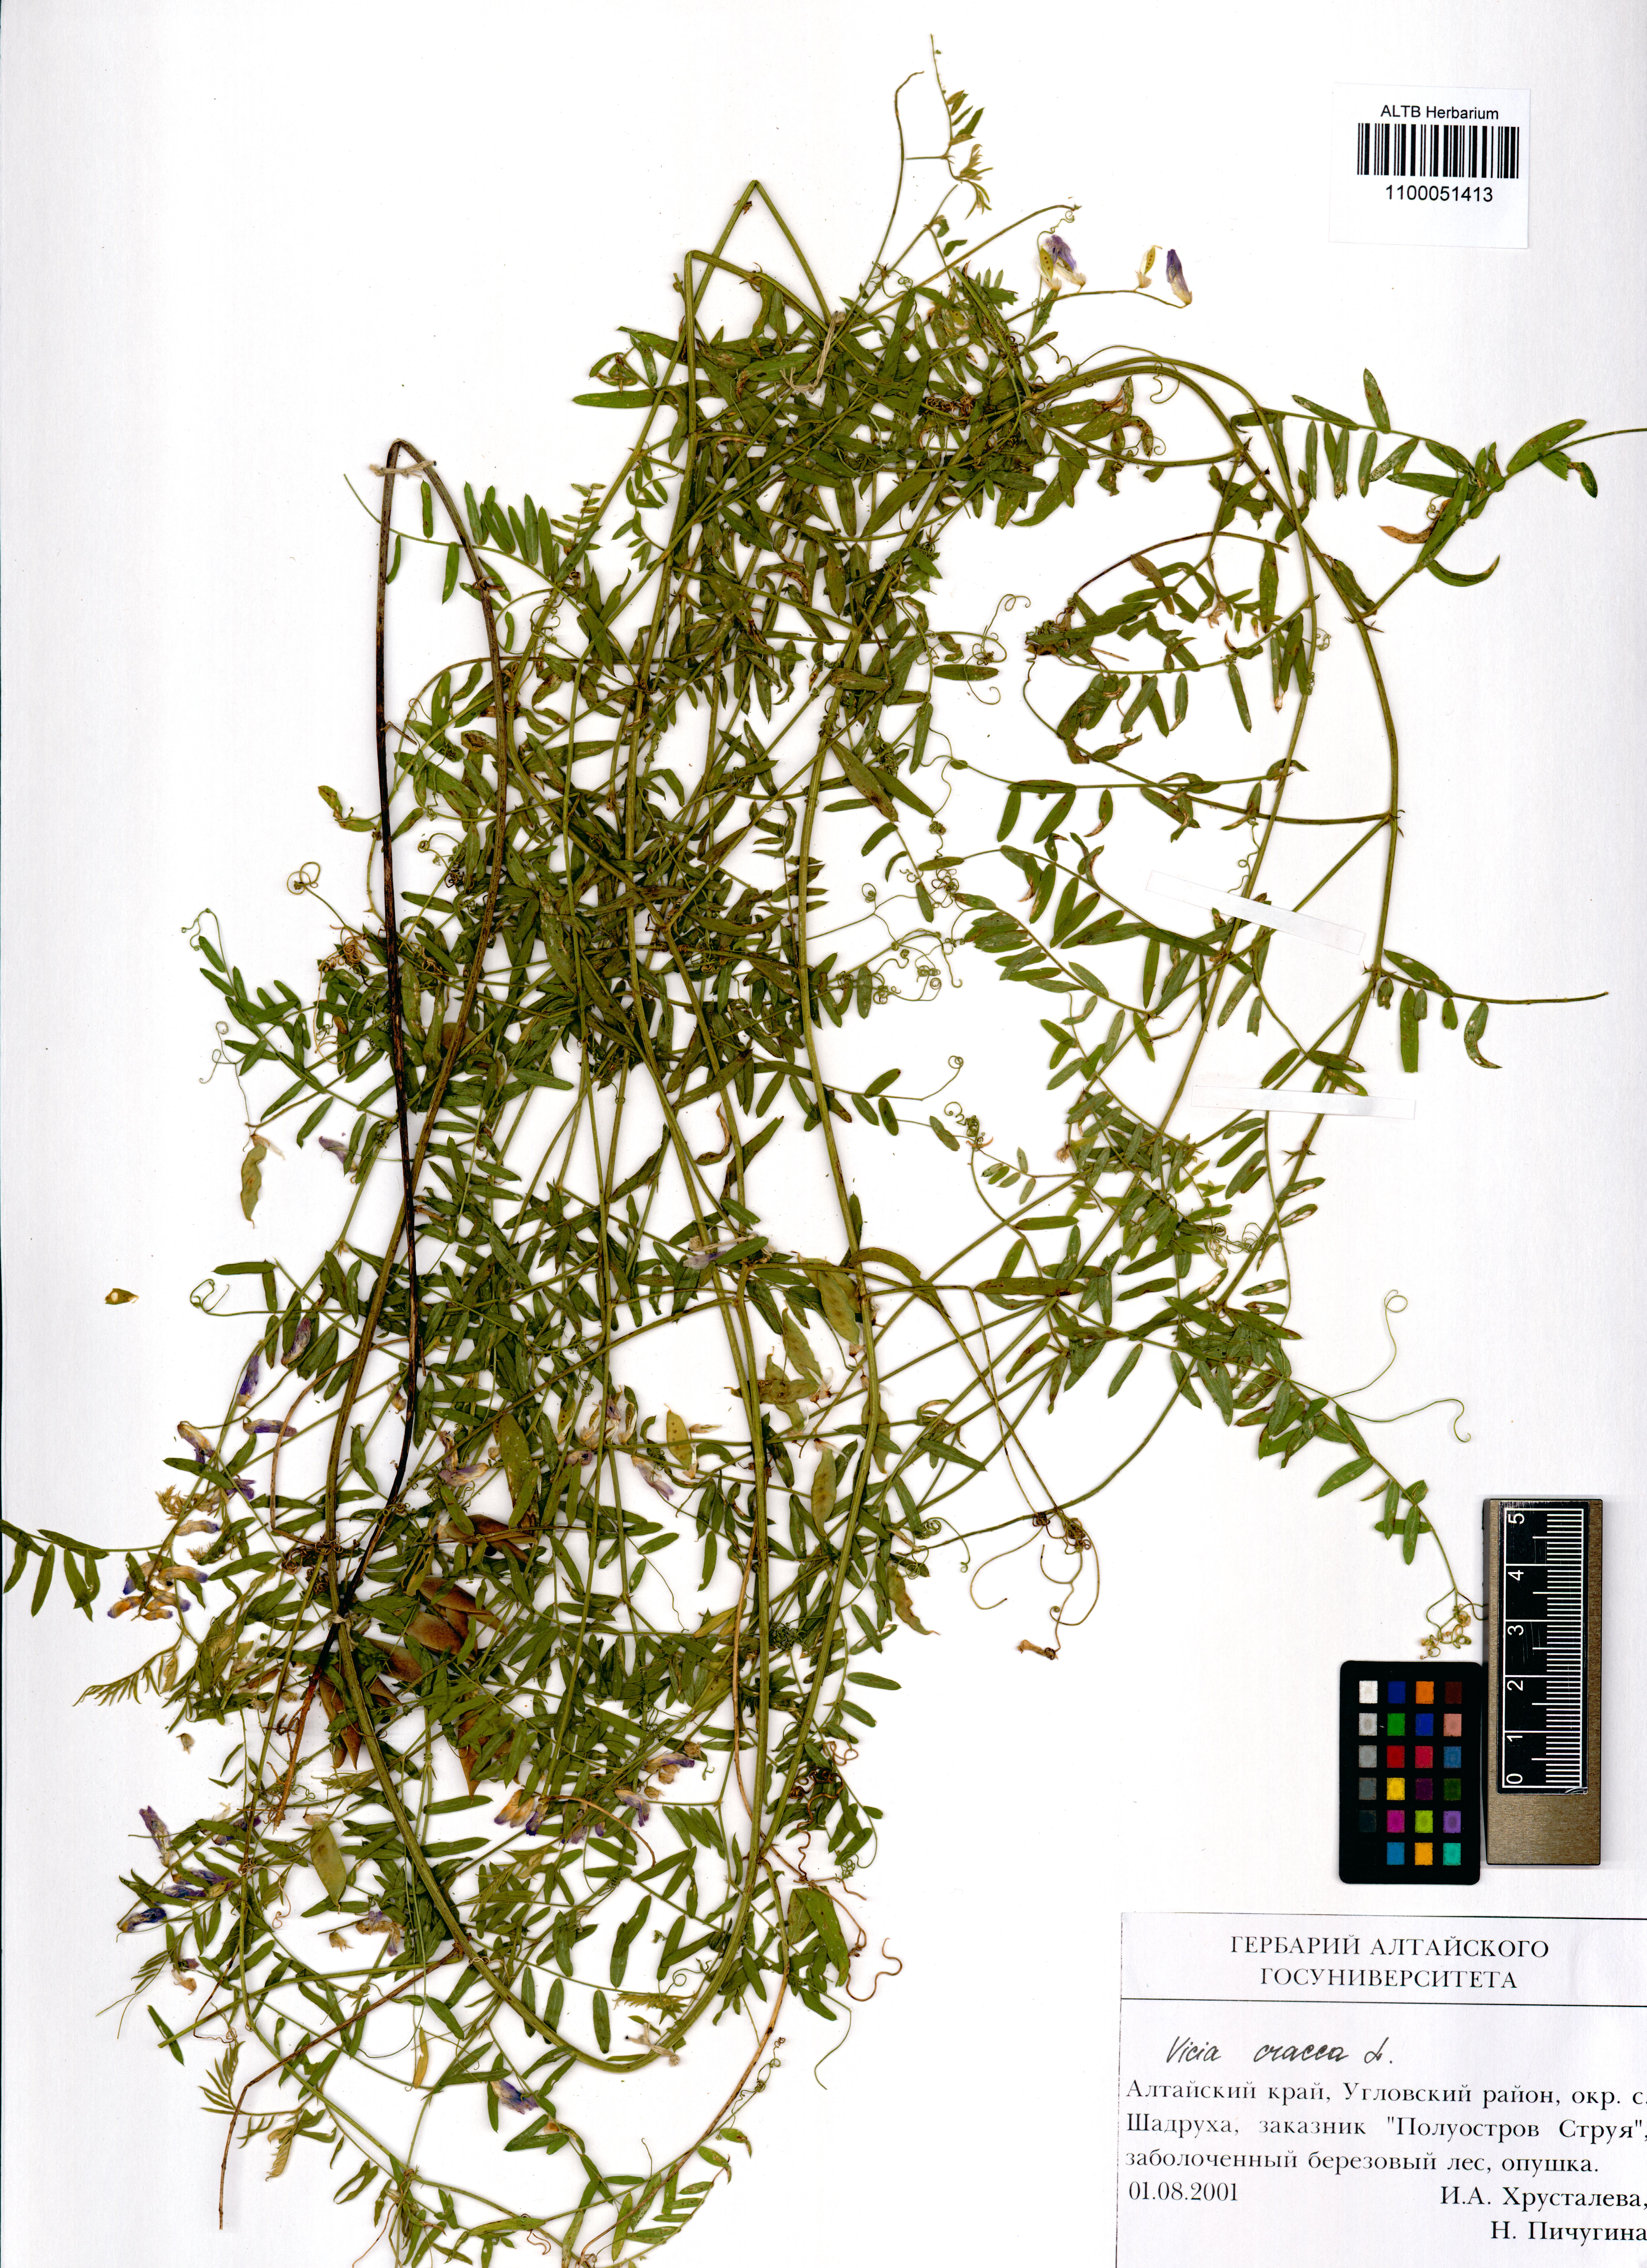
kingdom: Plantae
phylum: Tracheophyta
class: Magnoliopsida
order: Fabales
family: Fabaceae
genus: Vicia
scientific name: Vicia cracca
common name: Bird vetch
